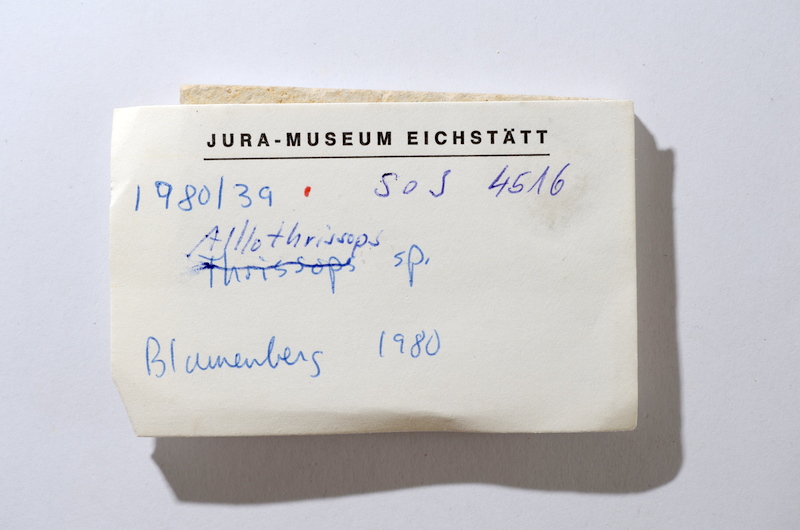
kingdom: Animalia
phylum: Chordata
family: Allothrissopidae
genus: Allothrissops
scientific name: Allothrissops
